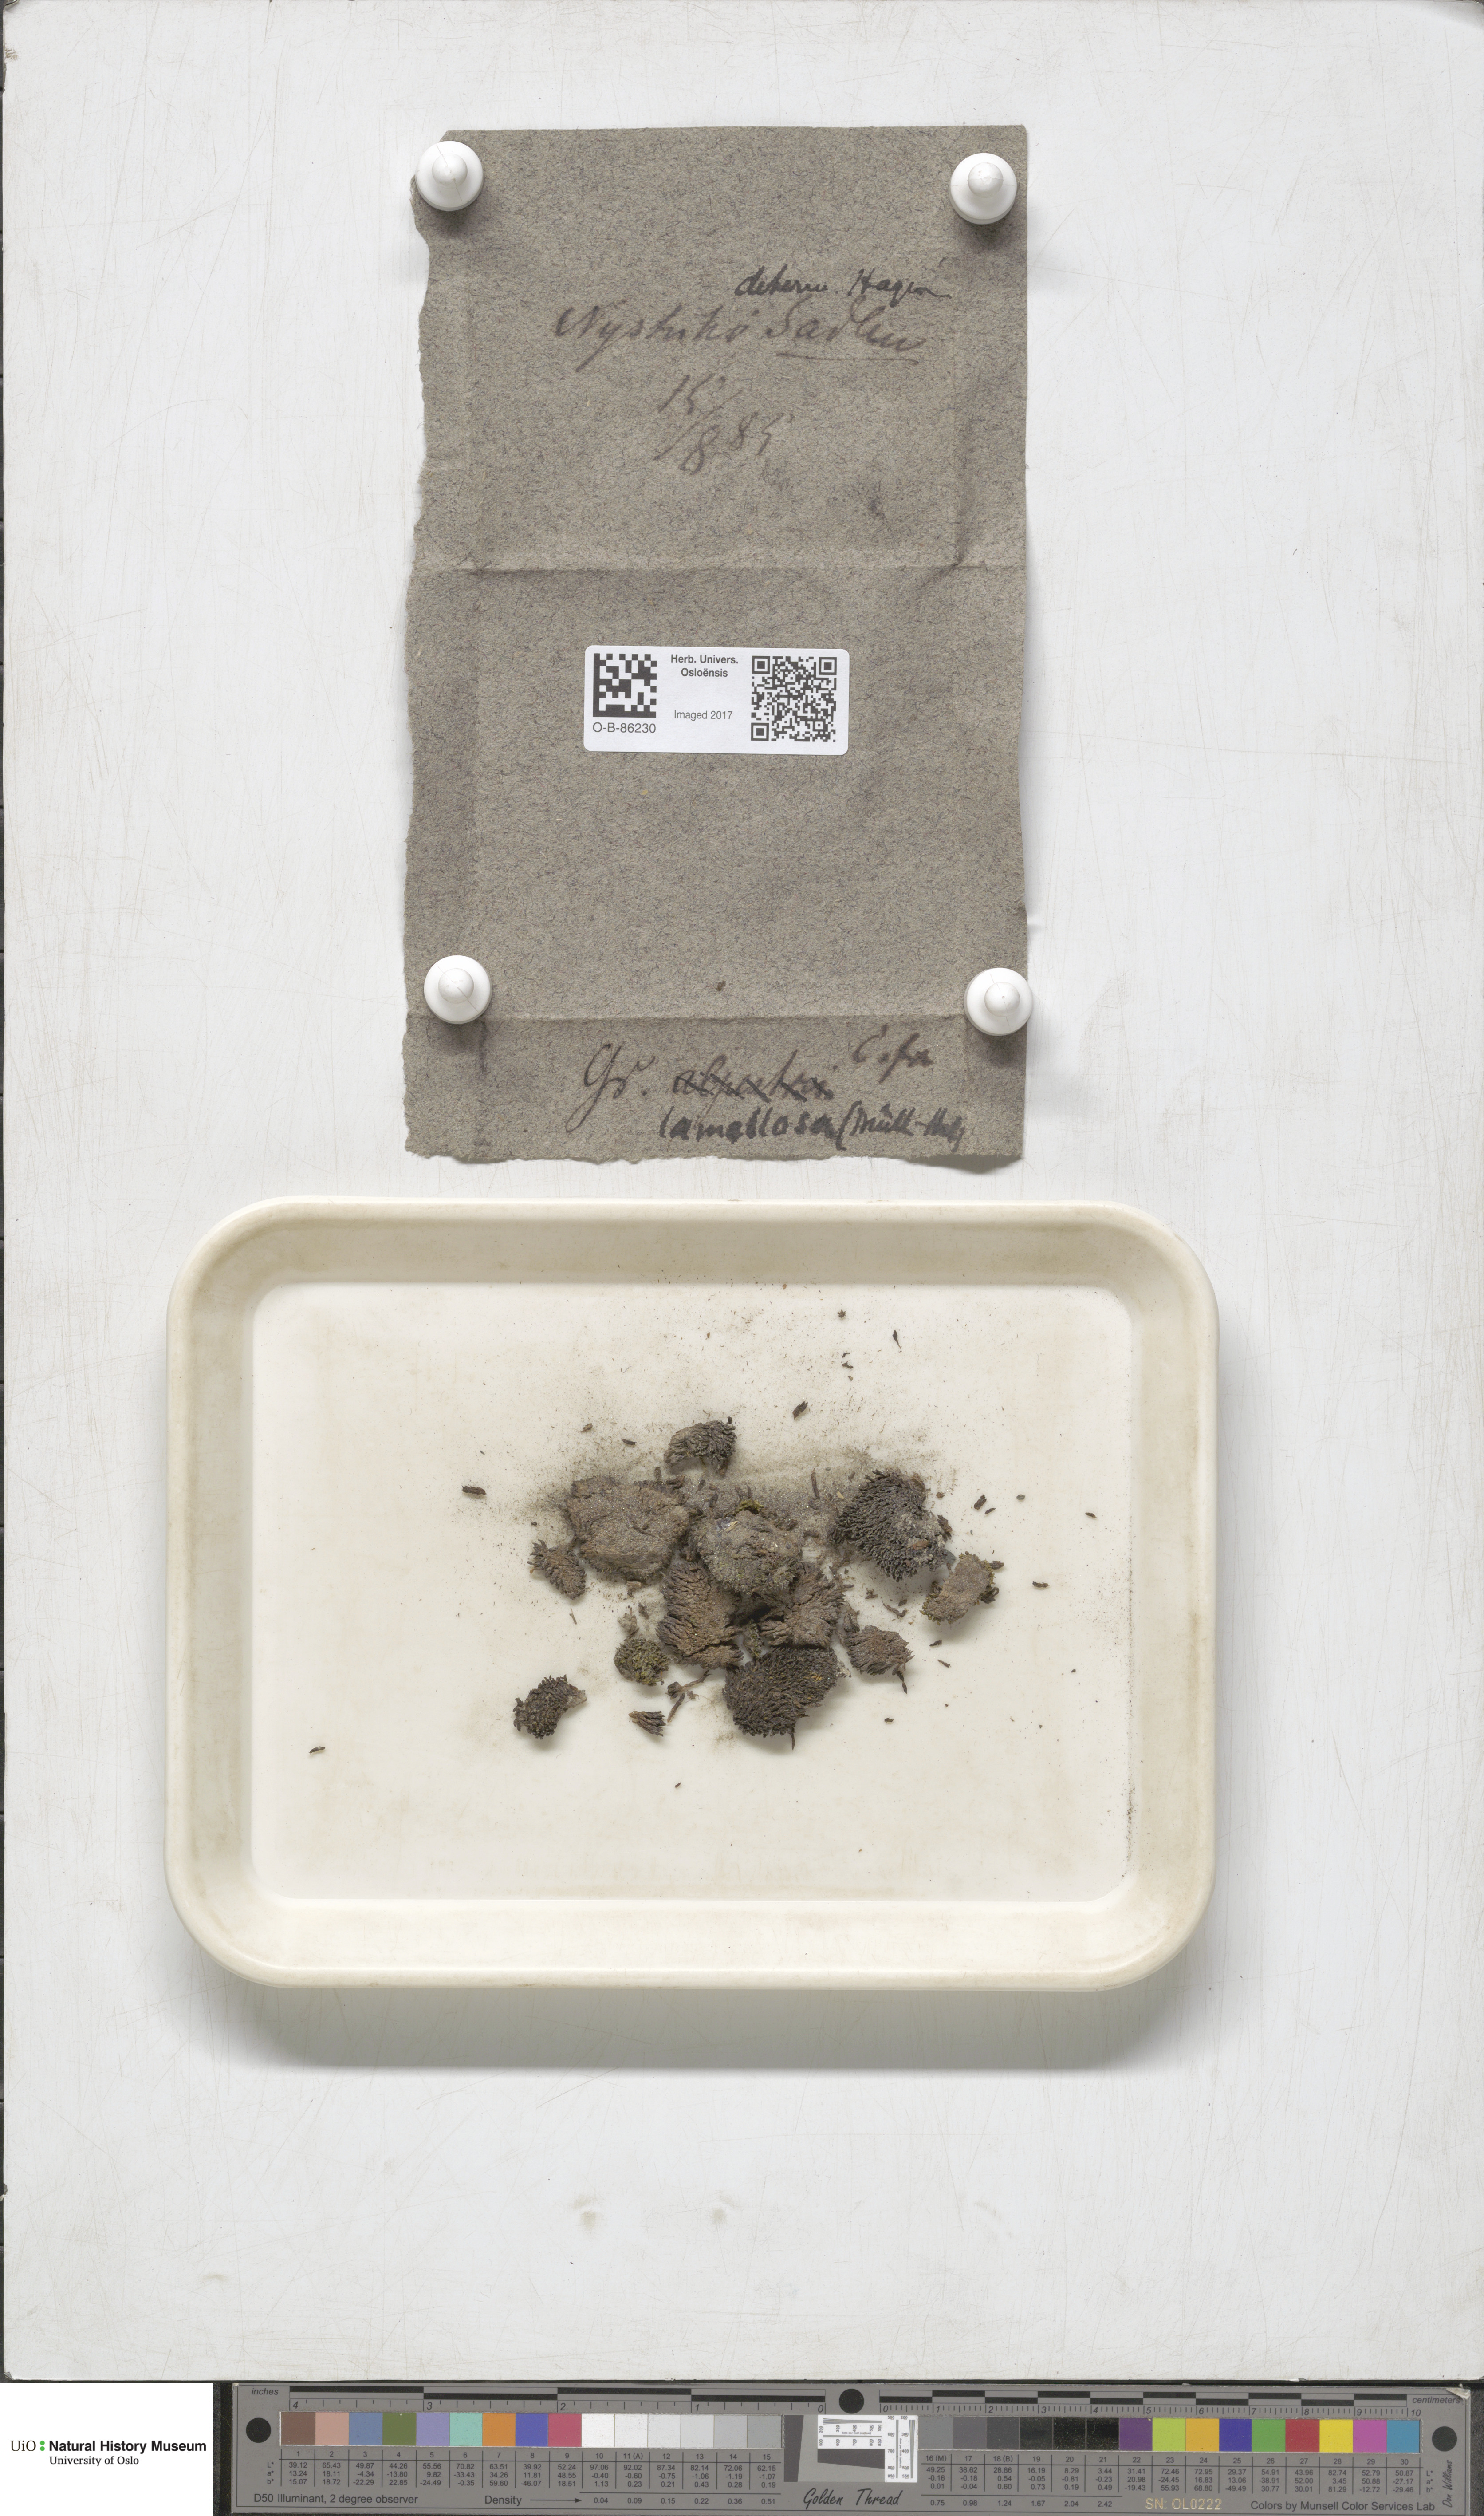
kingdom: Plantae
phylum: Bryophyta
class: Bryopsida
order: Grimmiales
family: Grimmiaceae
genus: Grimmia
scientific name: Grimmia donniana
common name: Donn's grimmia
